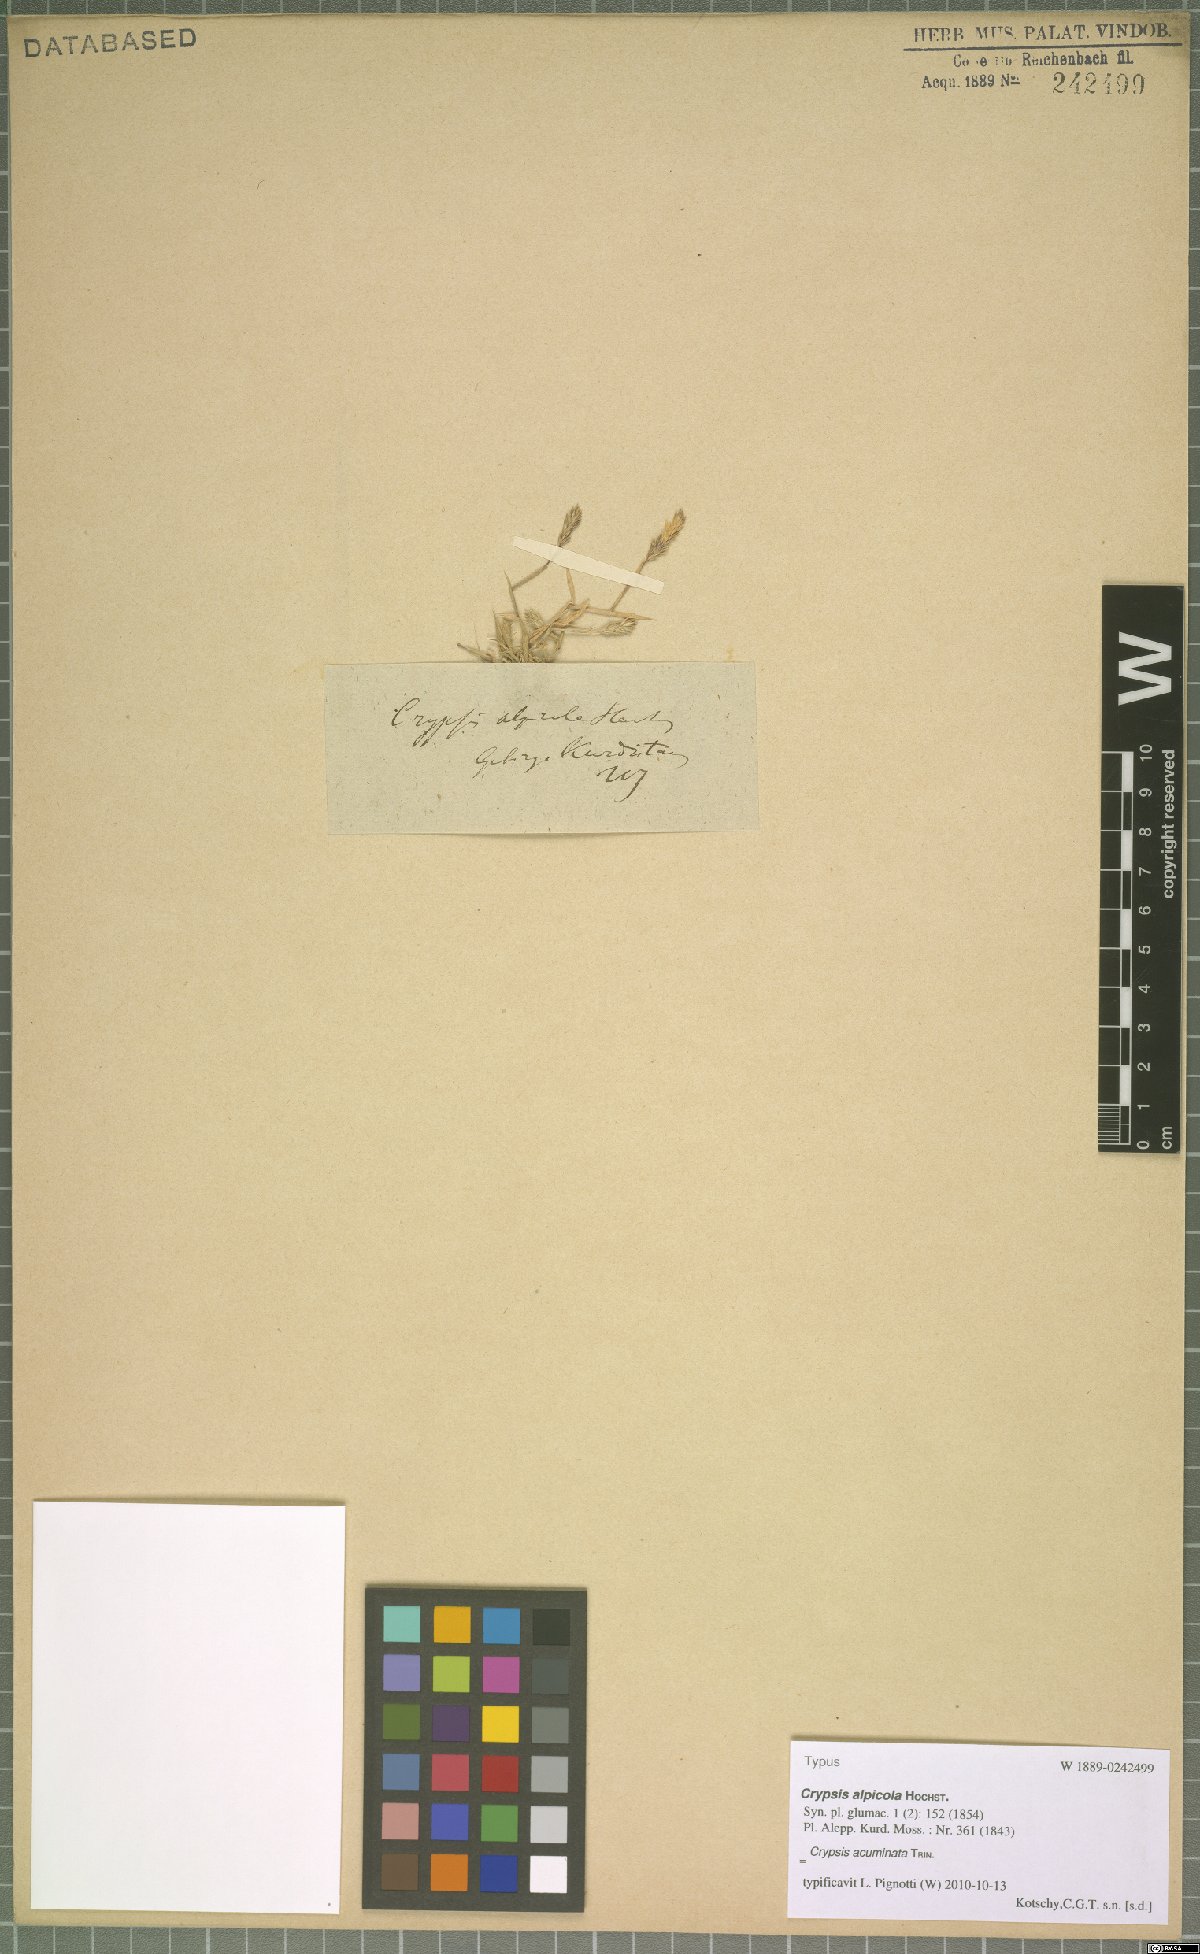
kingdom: Plantae
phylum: Tracheophyta
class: Liliopsida
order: Poales
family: Poaceae
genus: Sporobolus
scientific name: Sporobolus borszczowii
